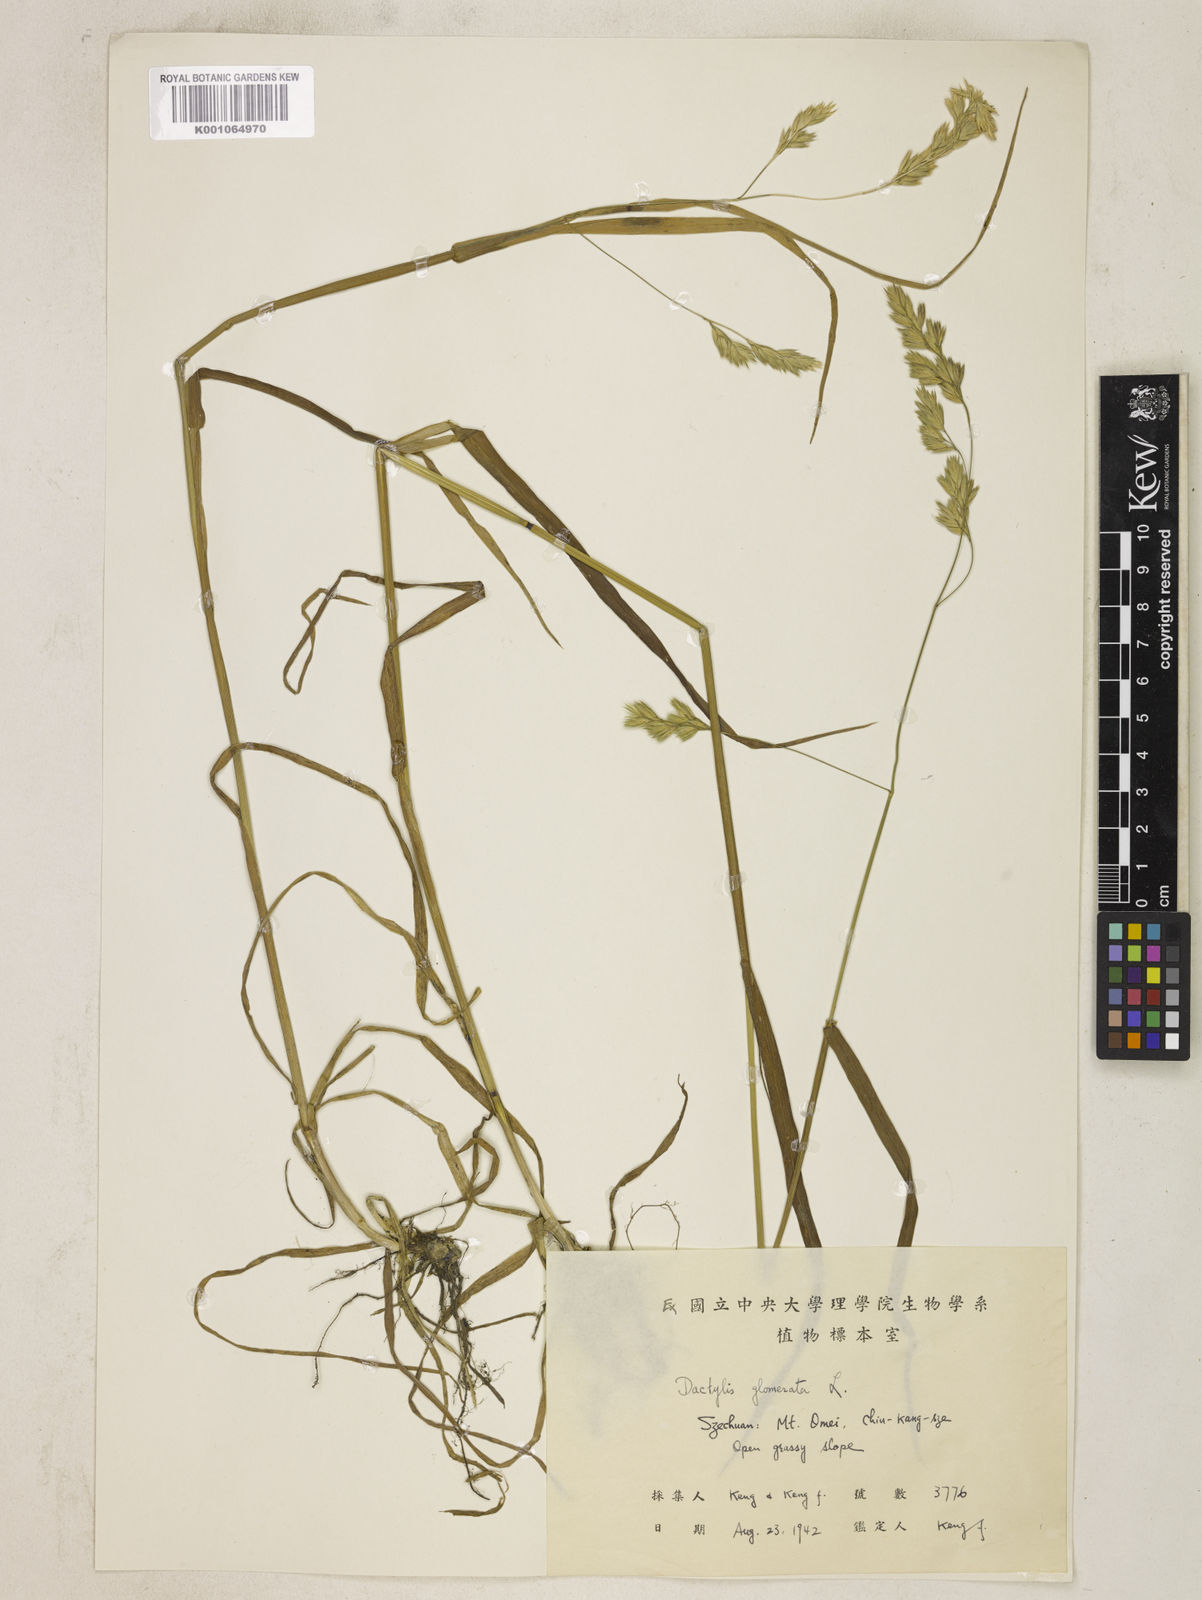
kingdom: Plantae
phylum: Tracheophyta
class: Liliopsida
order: Poales
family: Poaceae
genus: Dactylis
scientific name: Dactylis glomerata
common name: Orchardgrass
